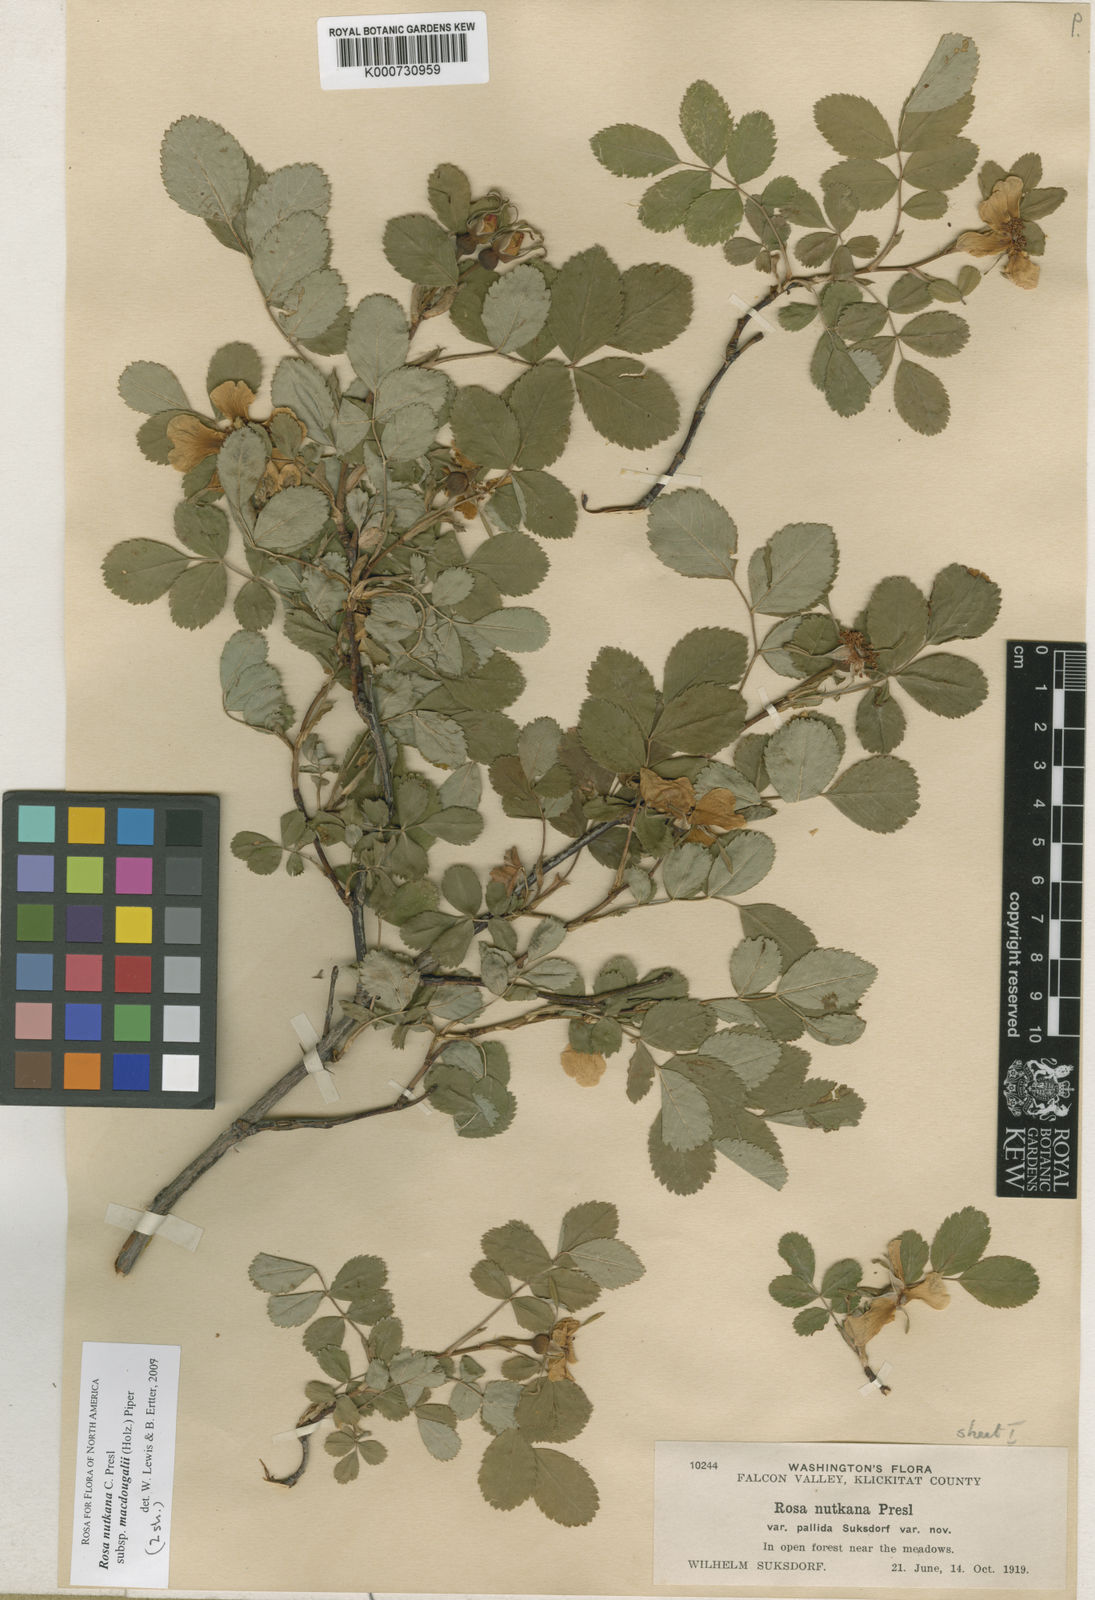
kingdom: Plantae
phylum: Tracheophyta
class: Magnoliopsida
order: Rosales
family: Rosaceae
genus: Rosa
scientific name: Rosa nutkana
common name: Nootka rose
